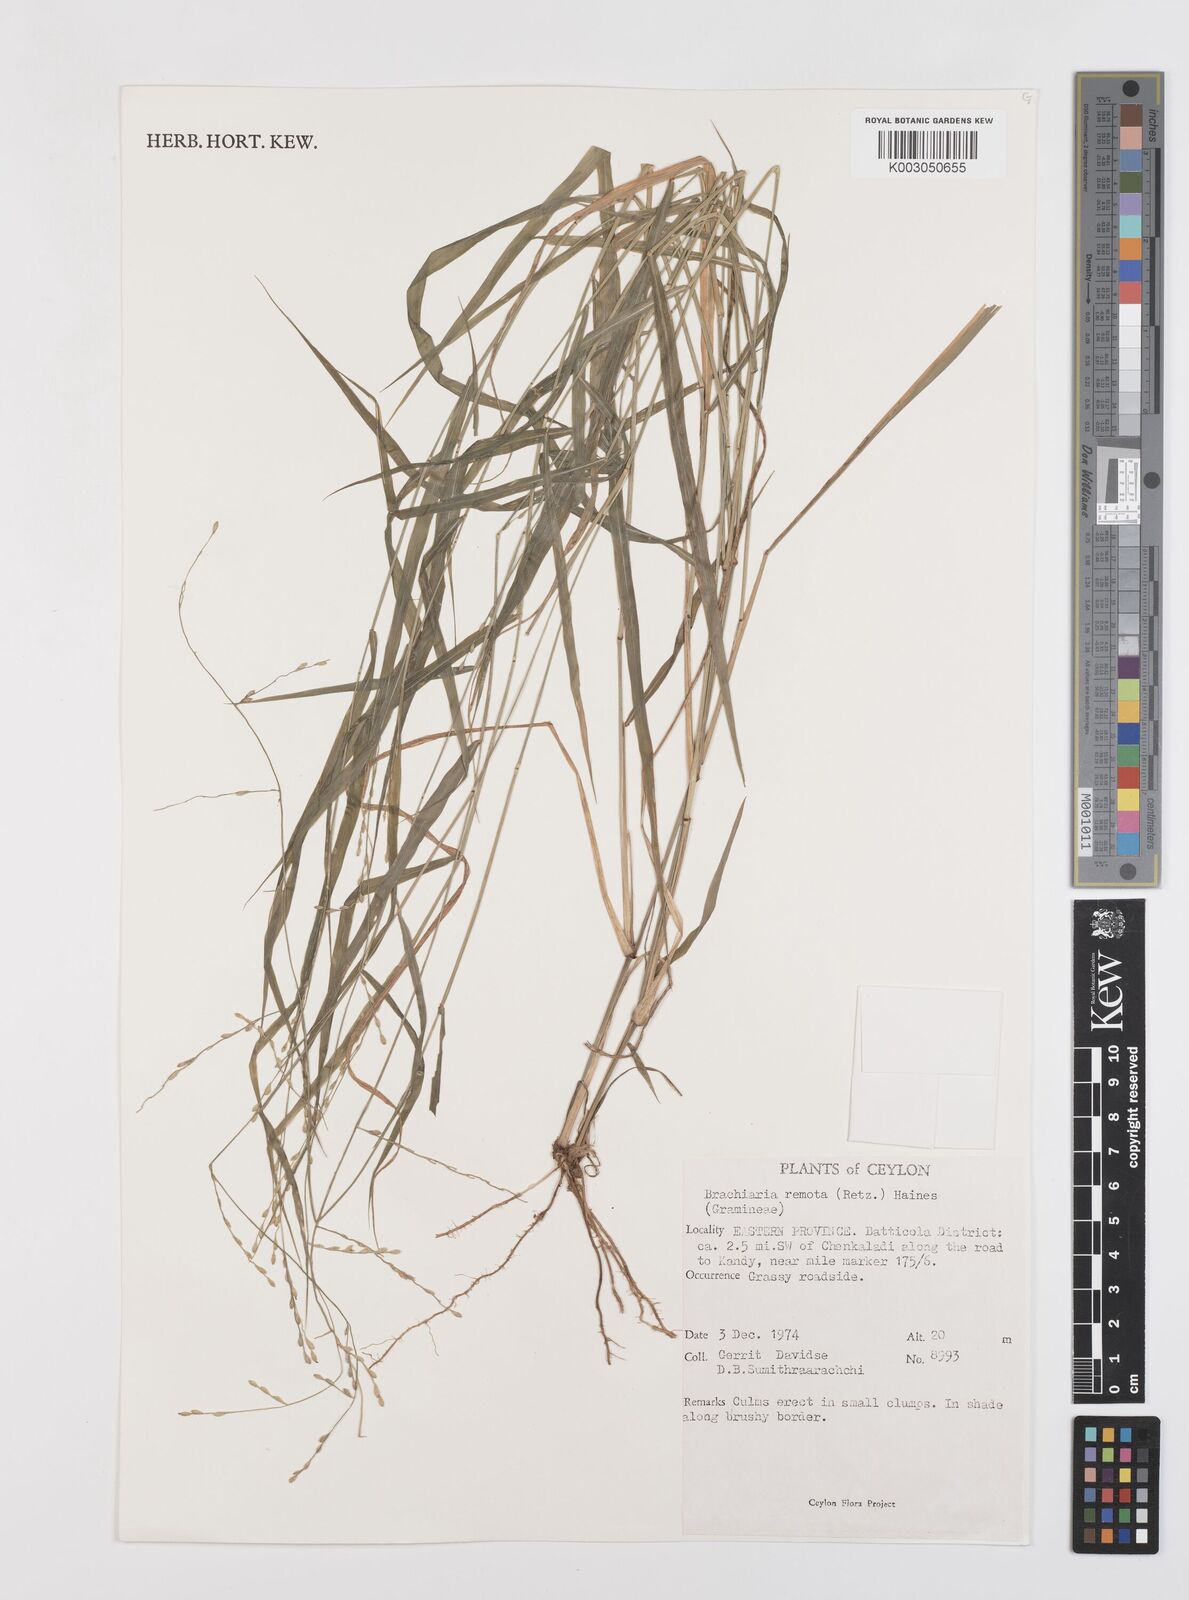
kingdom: Plantae
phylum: Tracheophyta
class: Liliopsida
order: Poales
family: Poaceae
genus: Urochloa
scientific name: Urochloa Brachiaria remota
